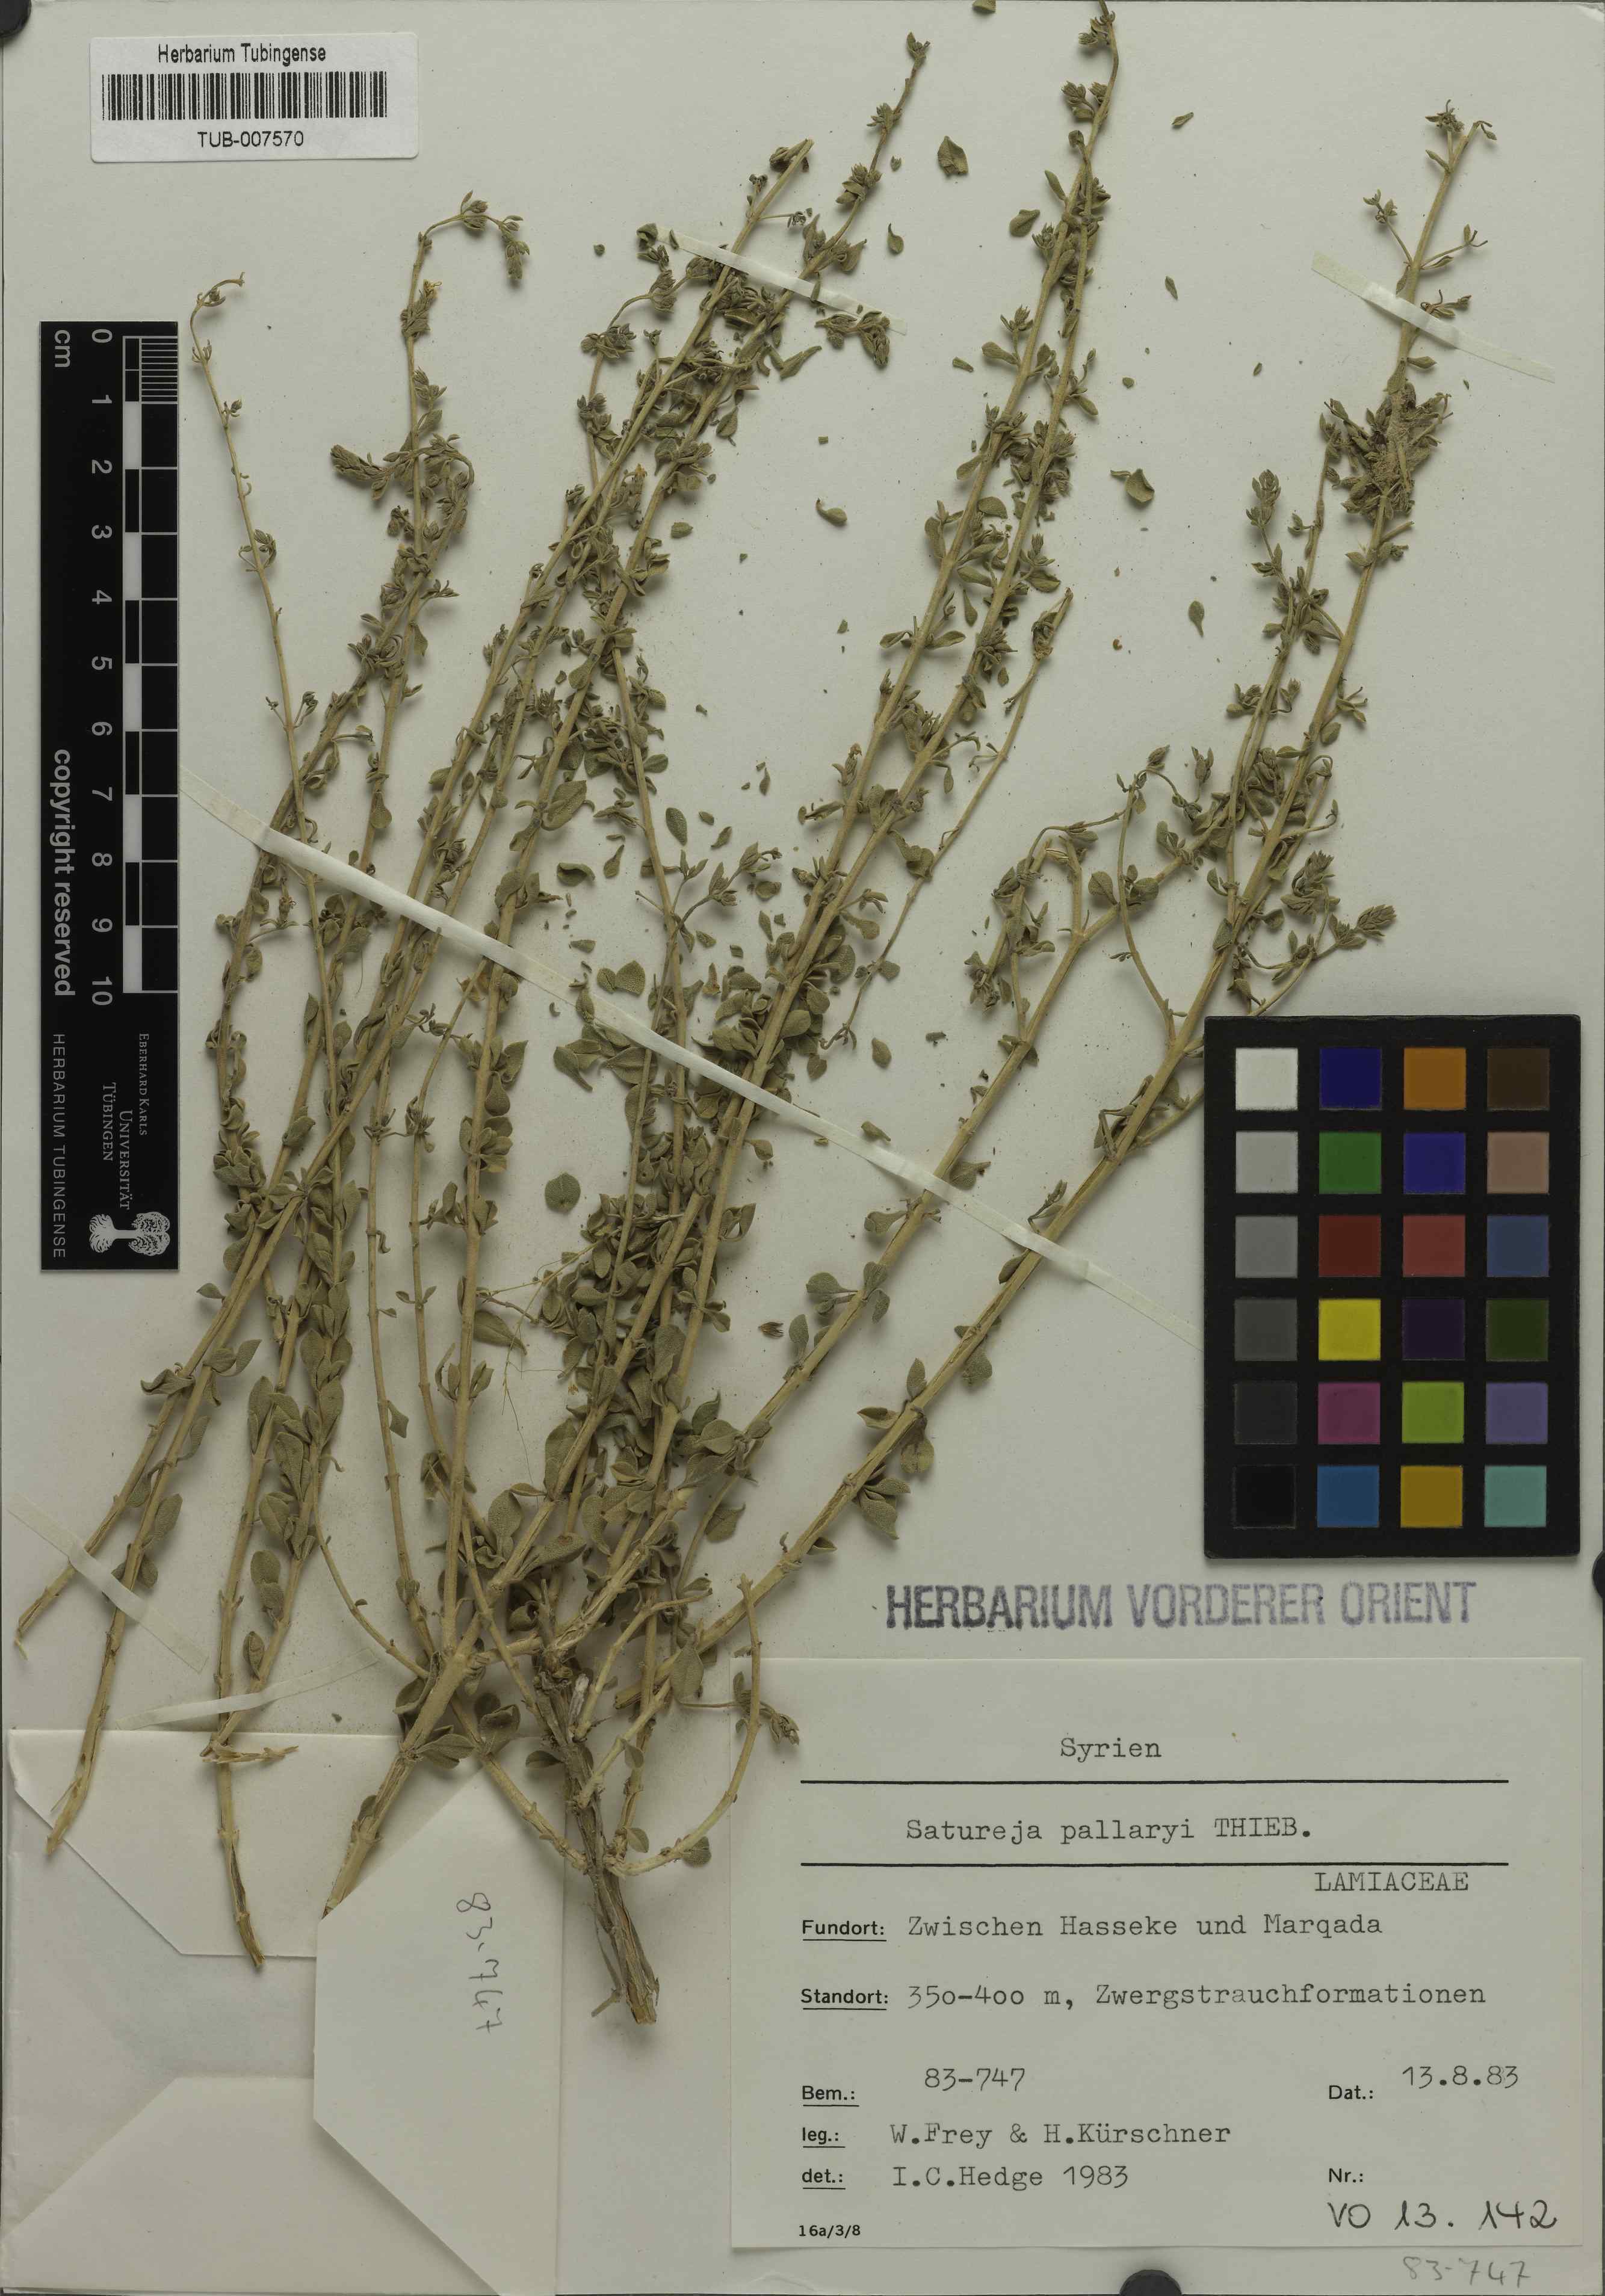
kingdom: Plantae
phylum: Tracheophyta
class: Magnoliopsida
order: Lamiales
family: Lamiaceae
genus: Satureja
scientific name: Satureja pallaryi
